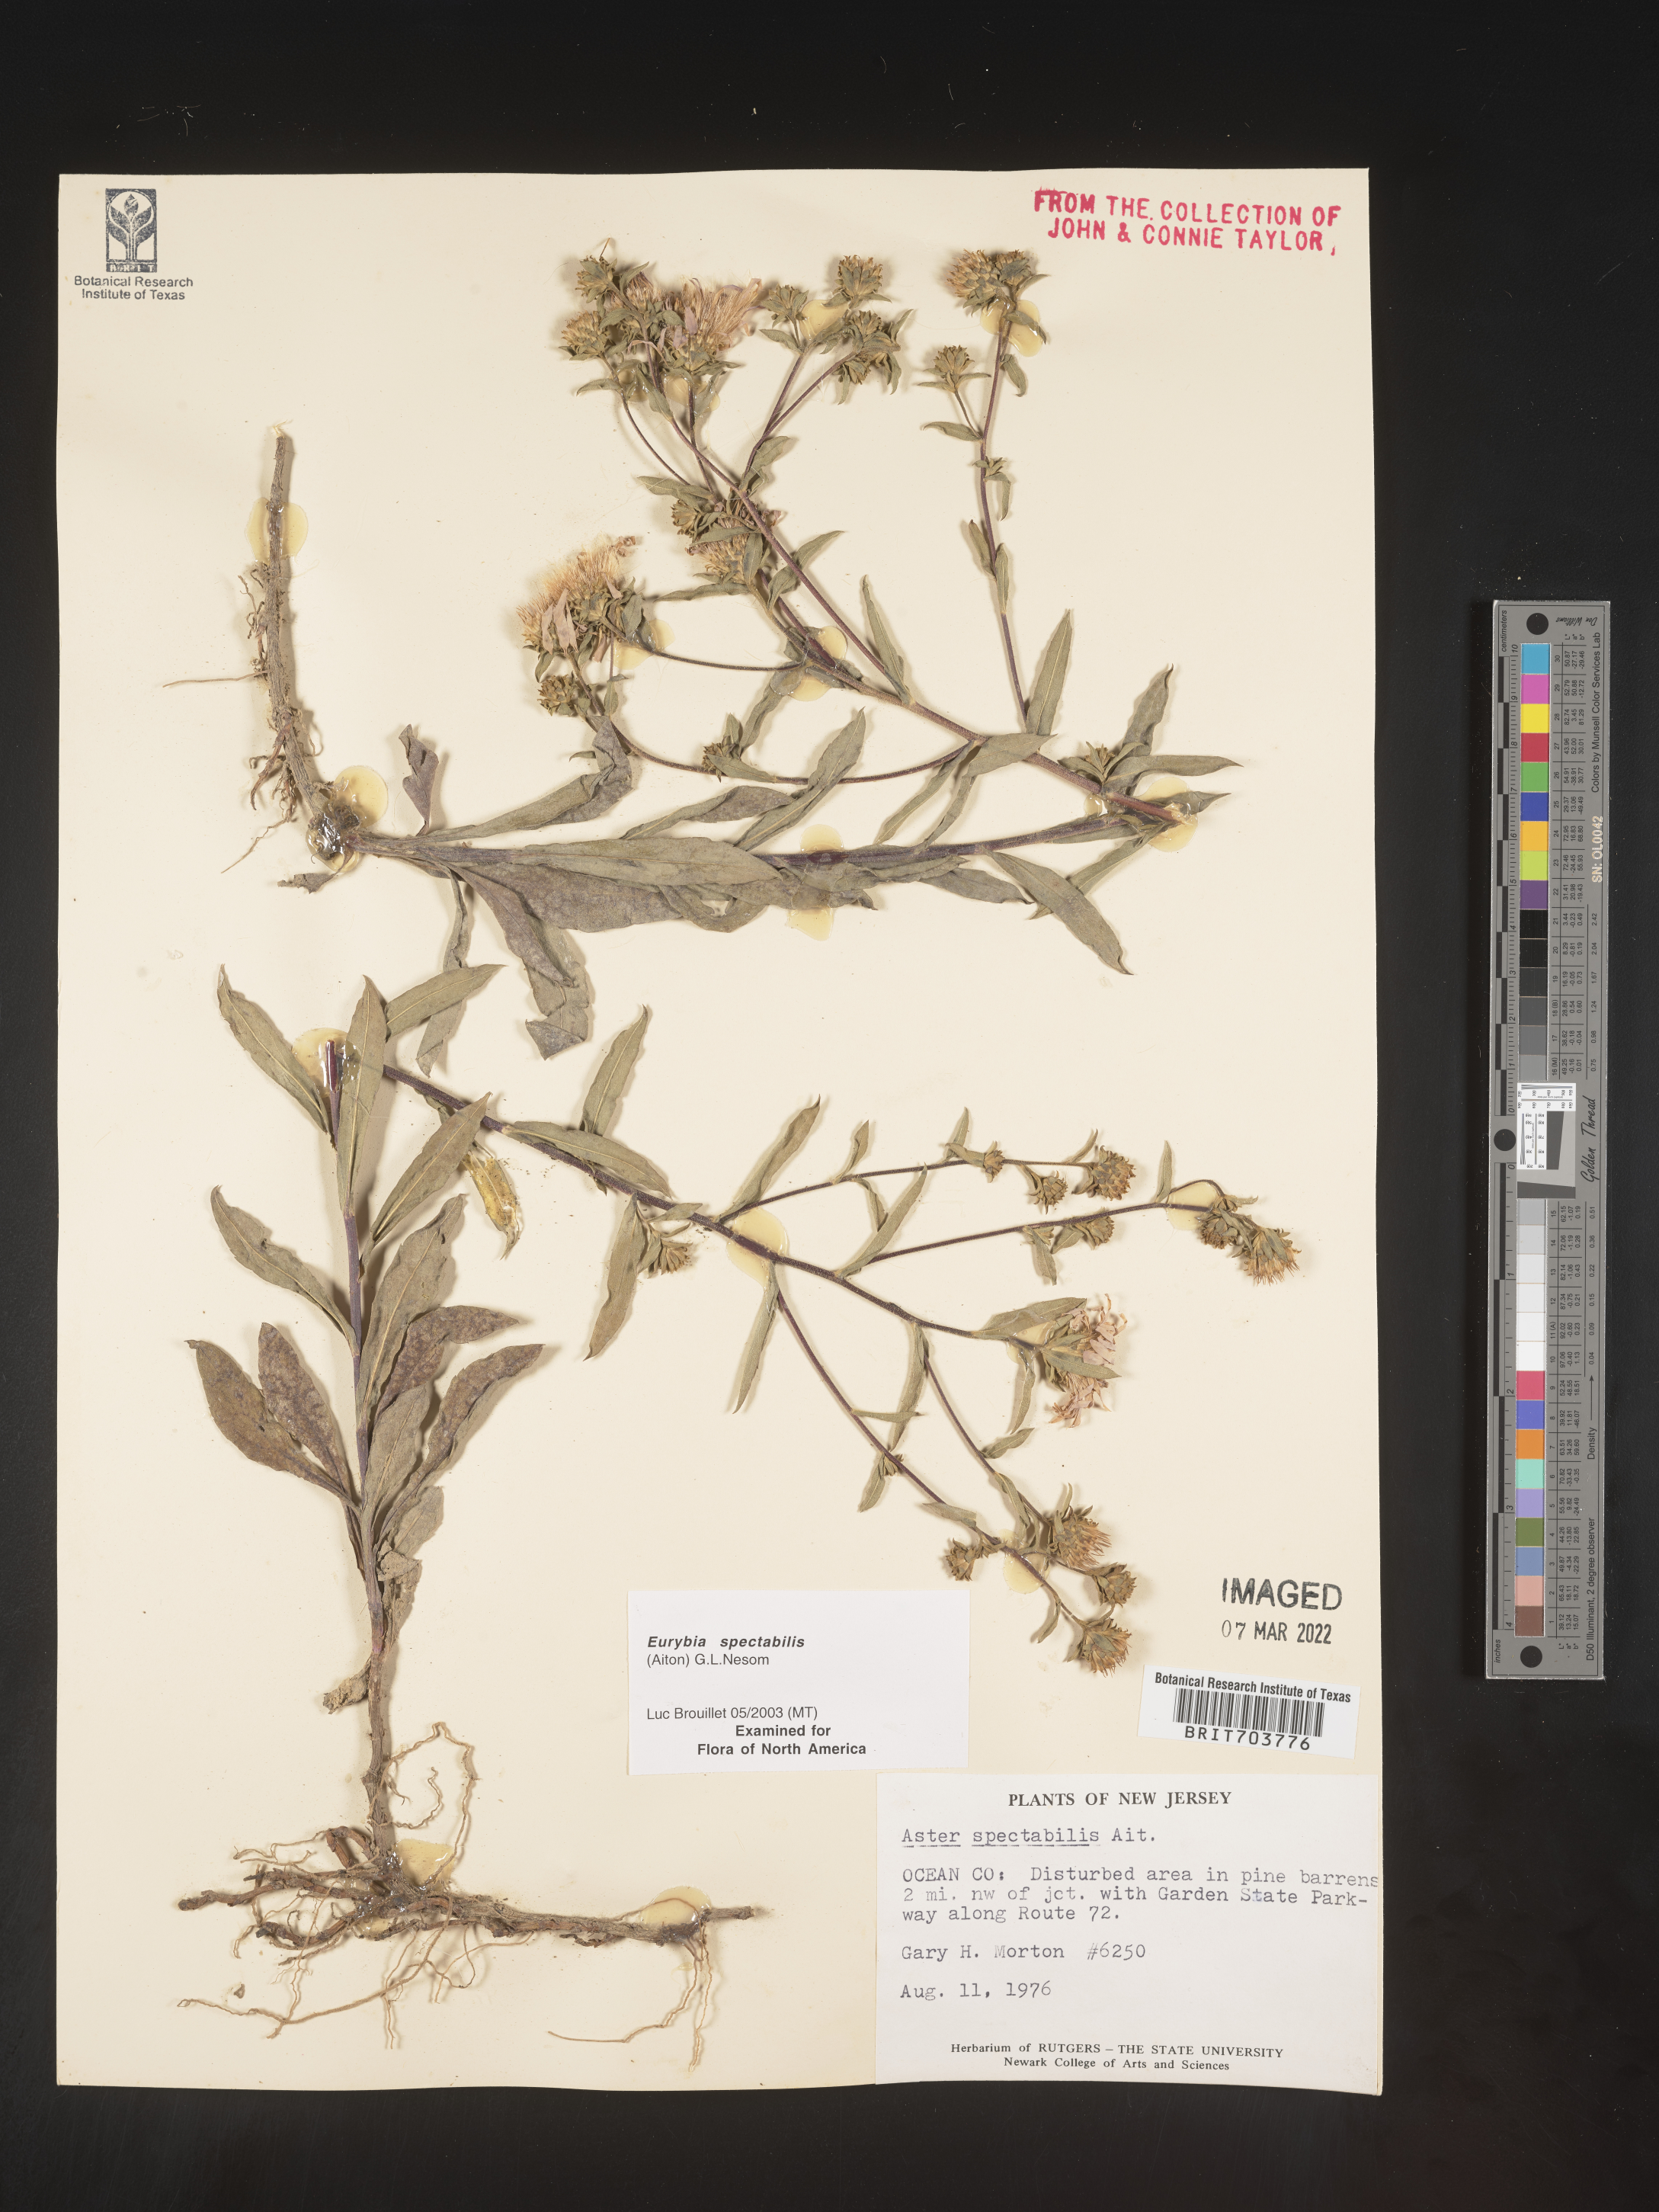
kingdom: Plantae
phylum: Tracheophyta
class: Magnoliopsida
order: Asterales
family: Asteraceae
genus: Eurybia
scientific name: Eurybia spectabilis
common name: Low showy aster
